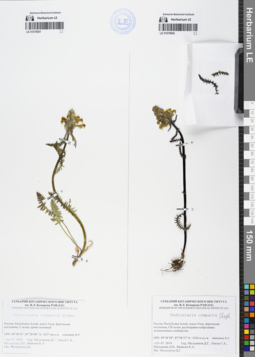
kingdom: Plantae
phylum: Tracheophyta
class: Magnoliopsida
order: Lamiales
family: Orobanchaceae
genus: Pedicularis
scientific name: Pedicularis compacta
